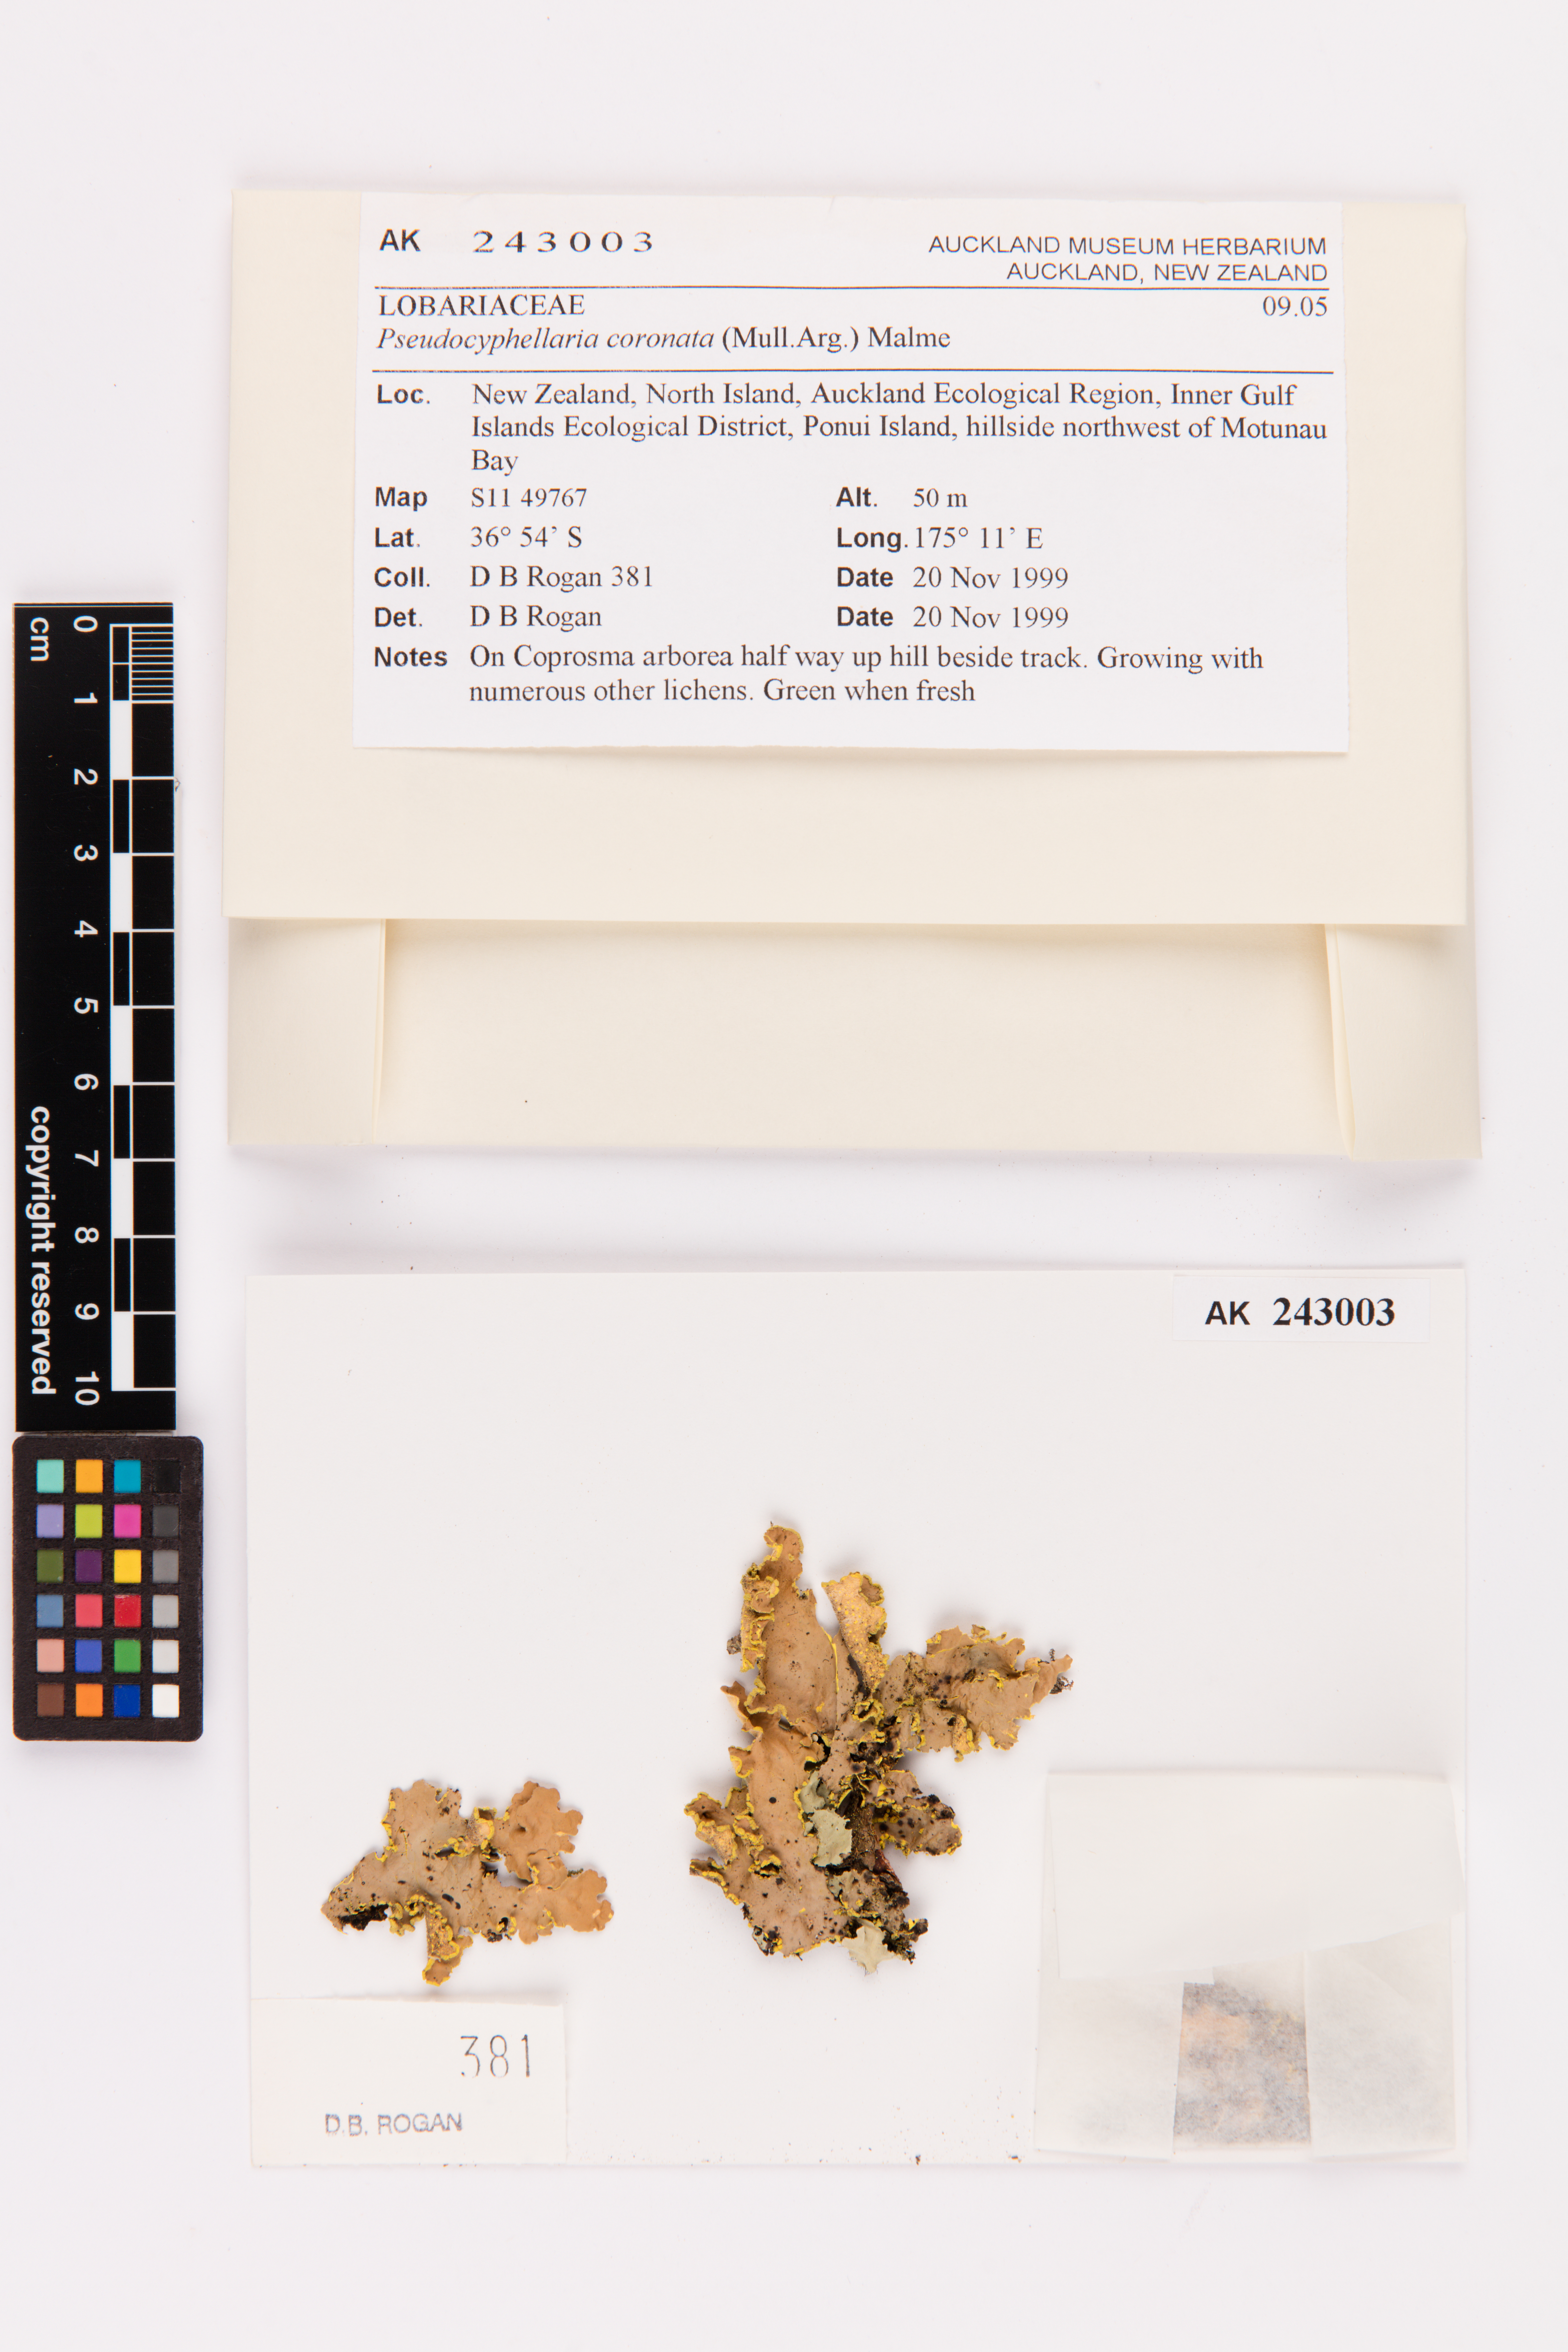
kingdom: Fungi
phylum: Ascomycota
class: Lecanoromycetes
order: Peltigerales
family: Lobariaceae
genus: Yarrumia
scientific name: Yarrumia coronata
